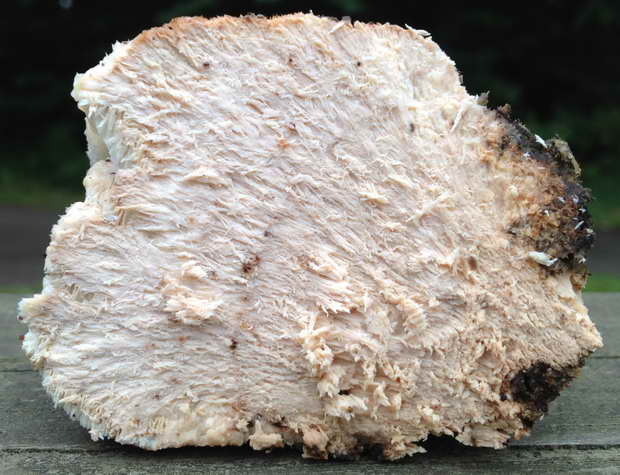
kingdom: Fungi
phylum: Basidiomycota
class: Agaricomycetes
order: Polyporales
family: Meruliaceae
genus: Pappia
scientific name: Pappia fissilis
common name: rosa fedtporesvamp
